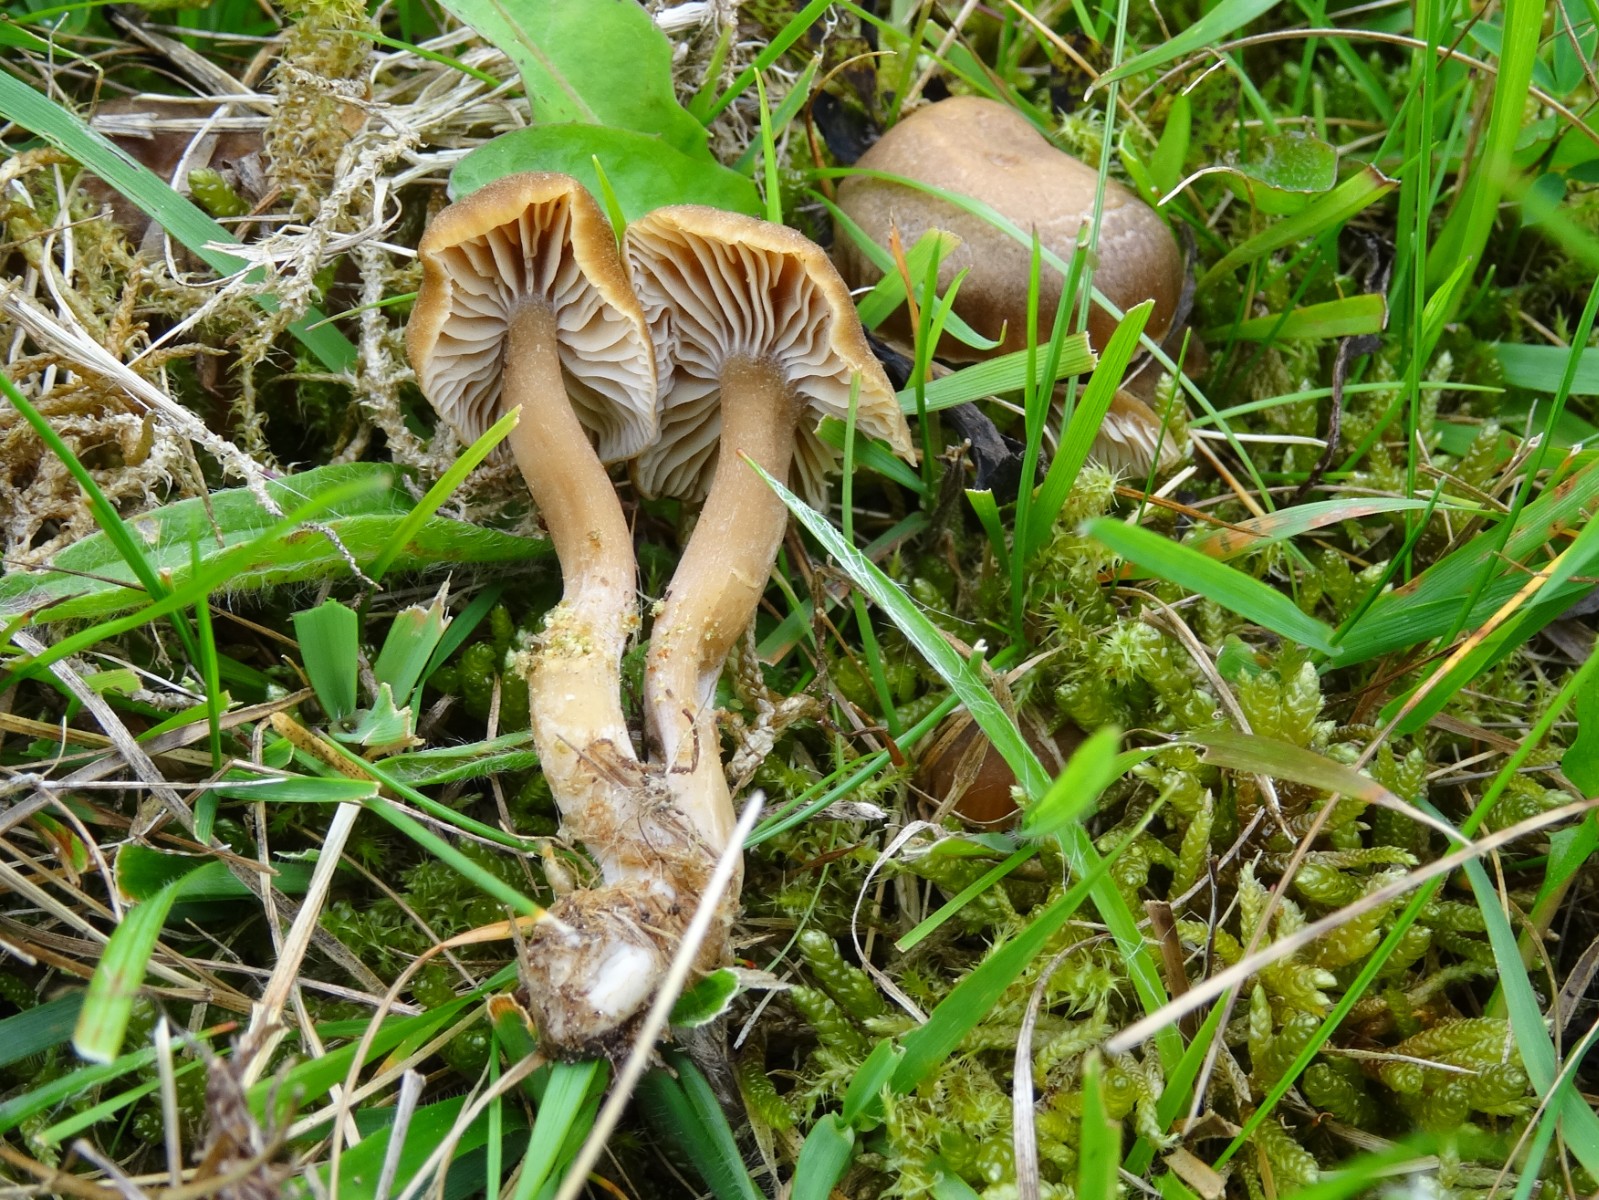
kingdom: Fungi
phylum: Basidiomycota
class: Agaricomycetes
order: Agaricales
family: Clavariaceae
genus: Camarophyllopsis
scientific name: Camarophyllopsis schulzeri
